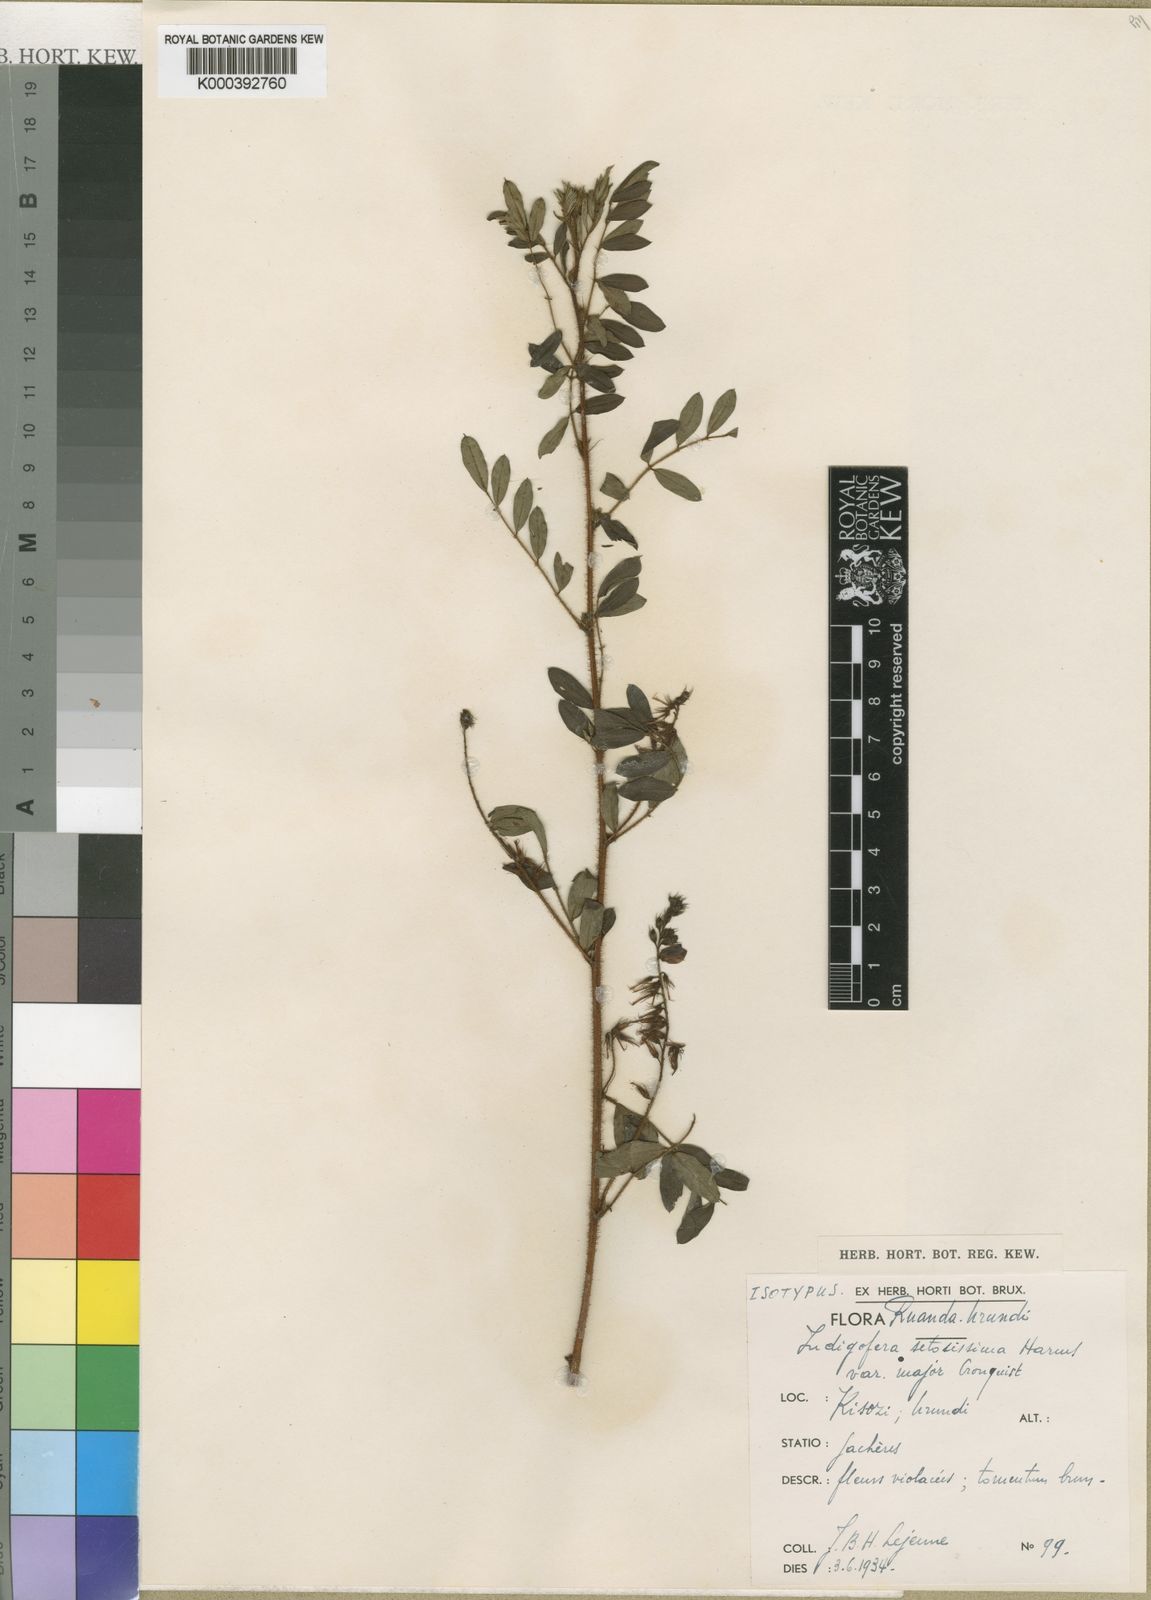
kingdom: Plantae
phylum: Tracheophyta
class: Magnoliopsida
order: Fabales
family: Fabaceae
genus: Indigofera
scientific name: Indigofera atriceps
